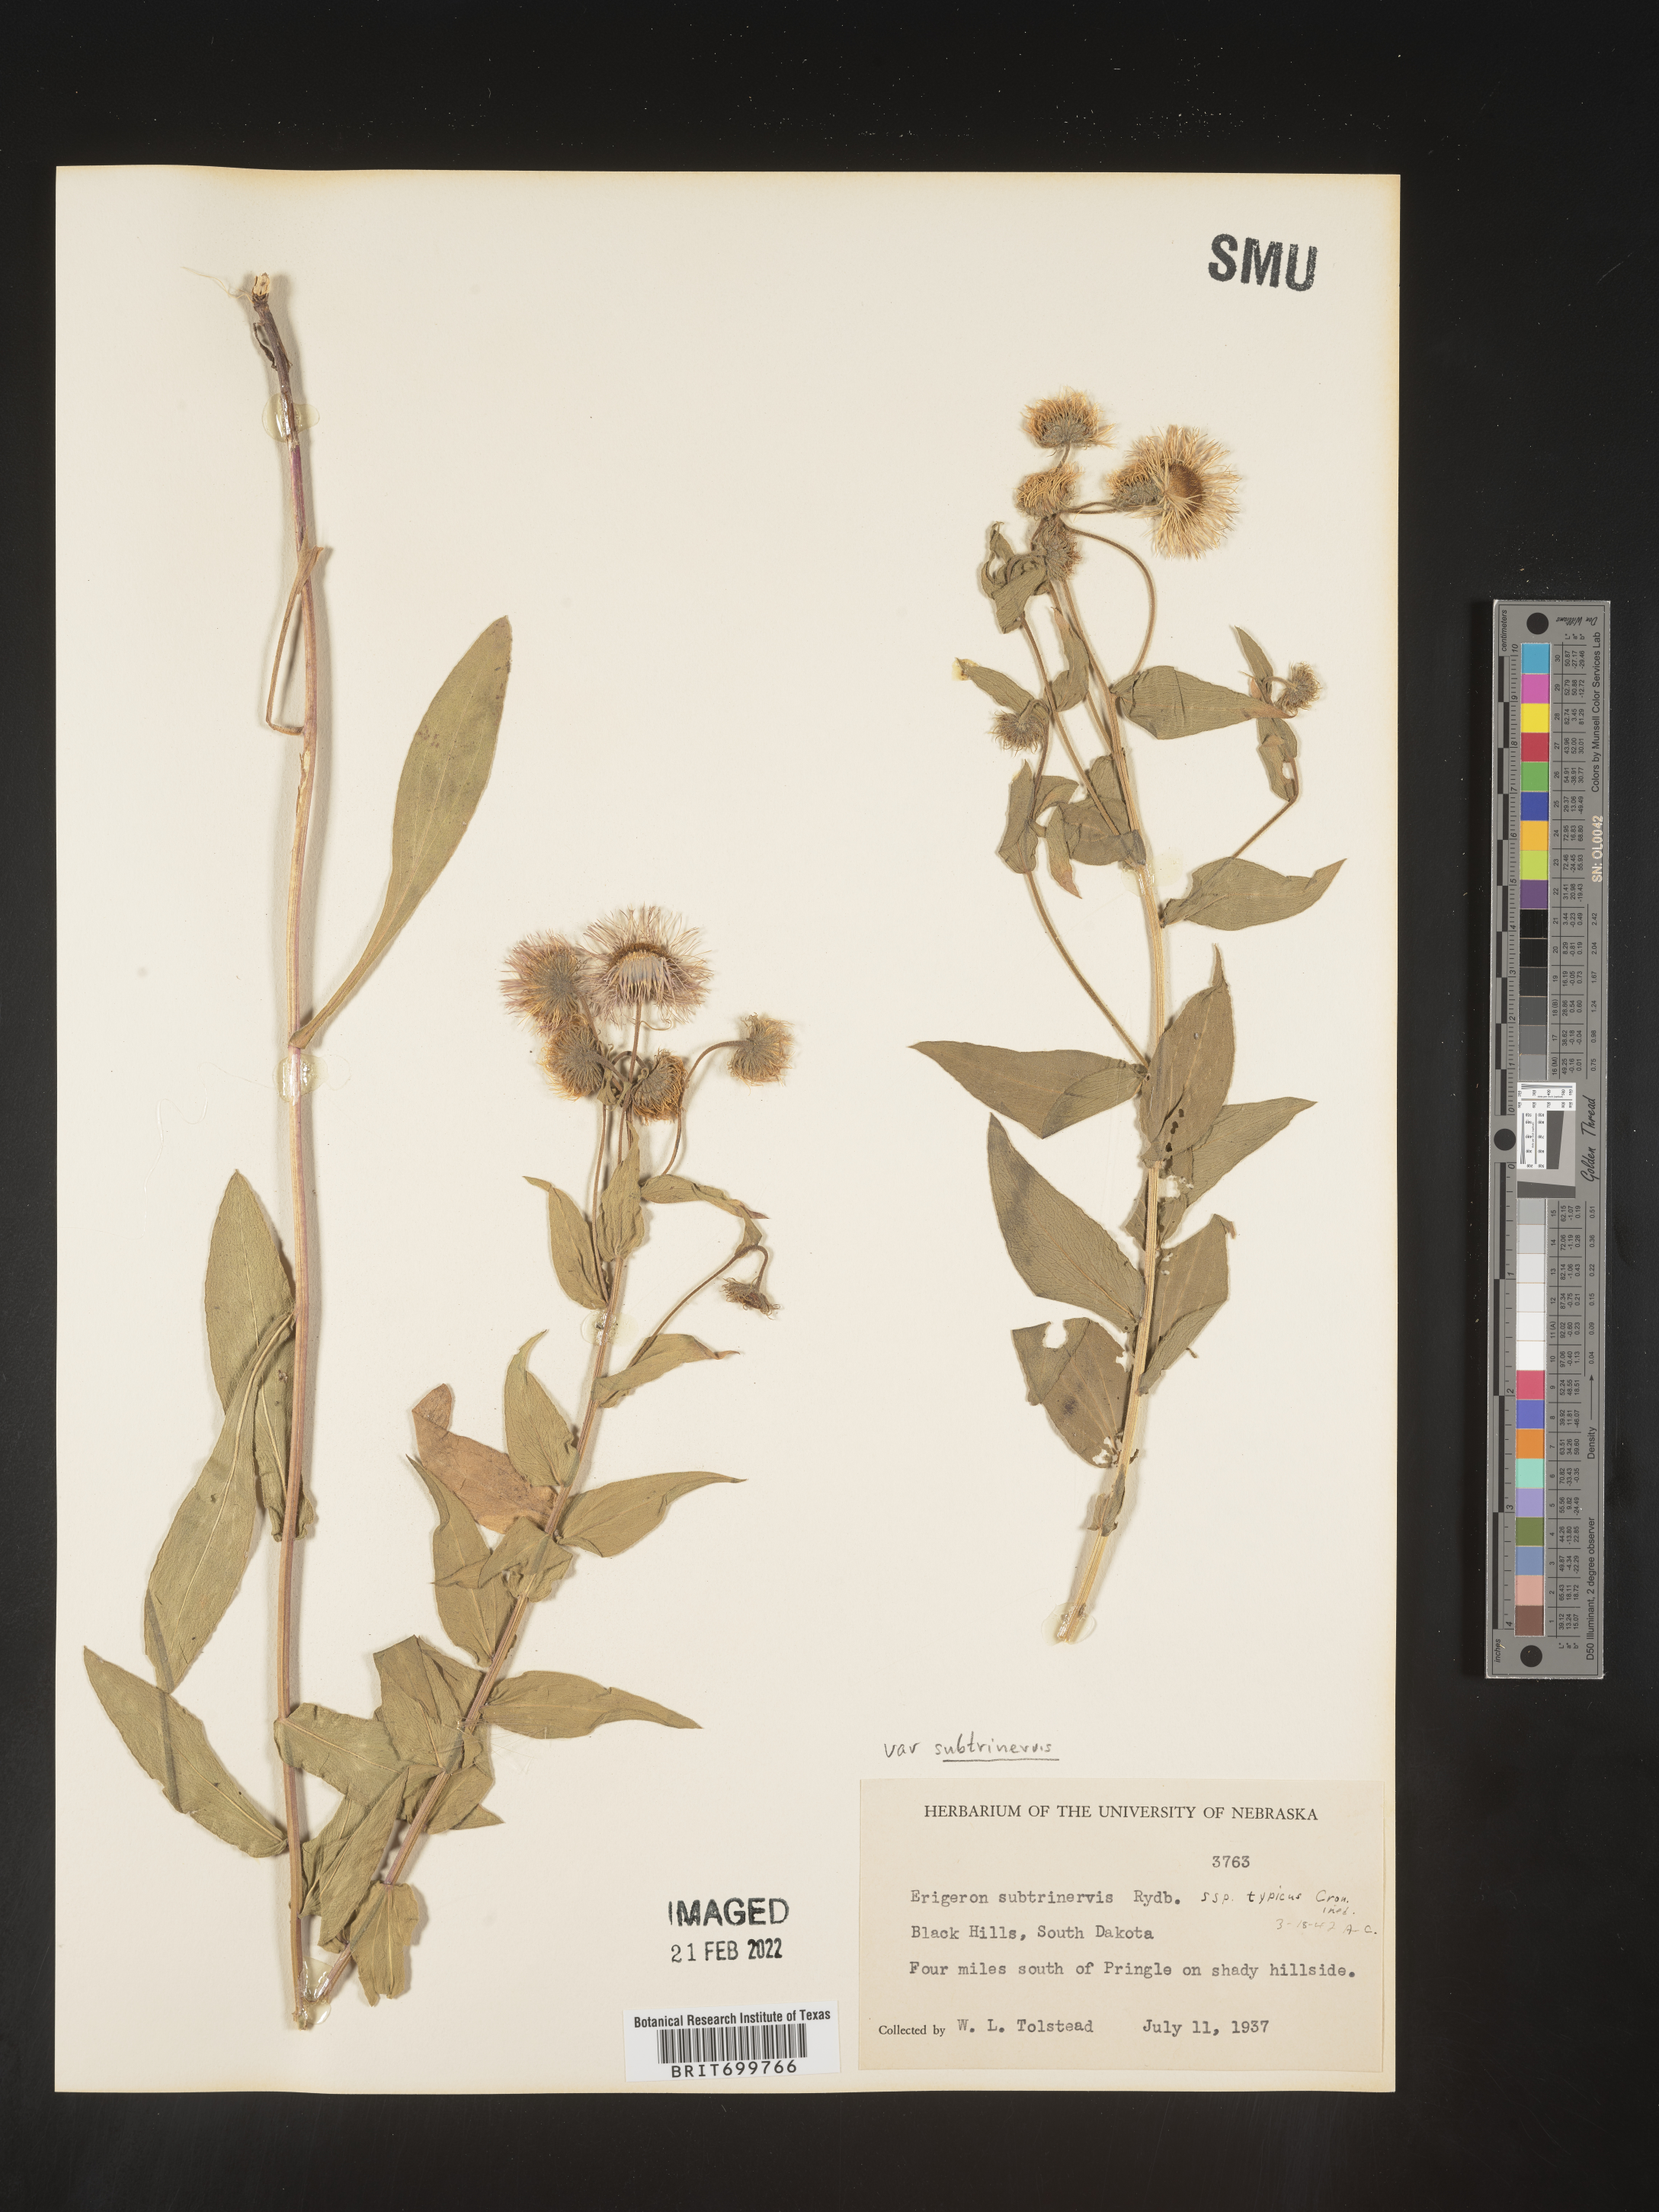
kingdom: Plantae
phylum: Tracheophyta
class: Magnoliopsida
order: Asterales
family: Asteraceae
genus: Erigeron
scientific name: Erigeron subtrinervis
